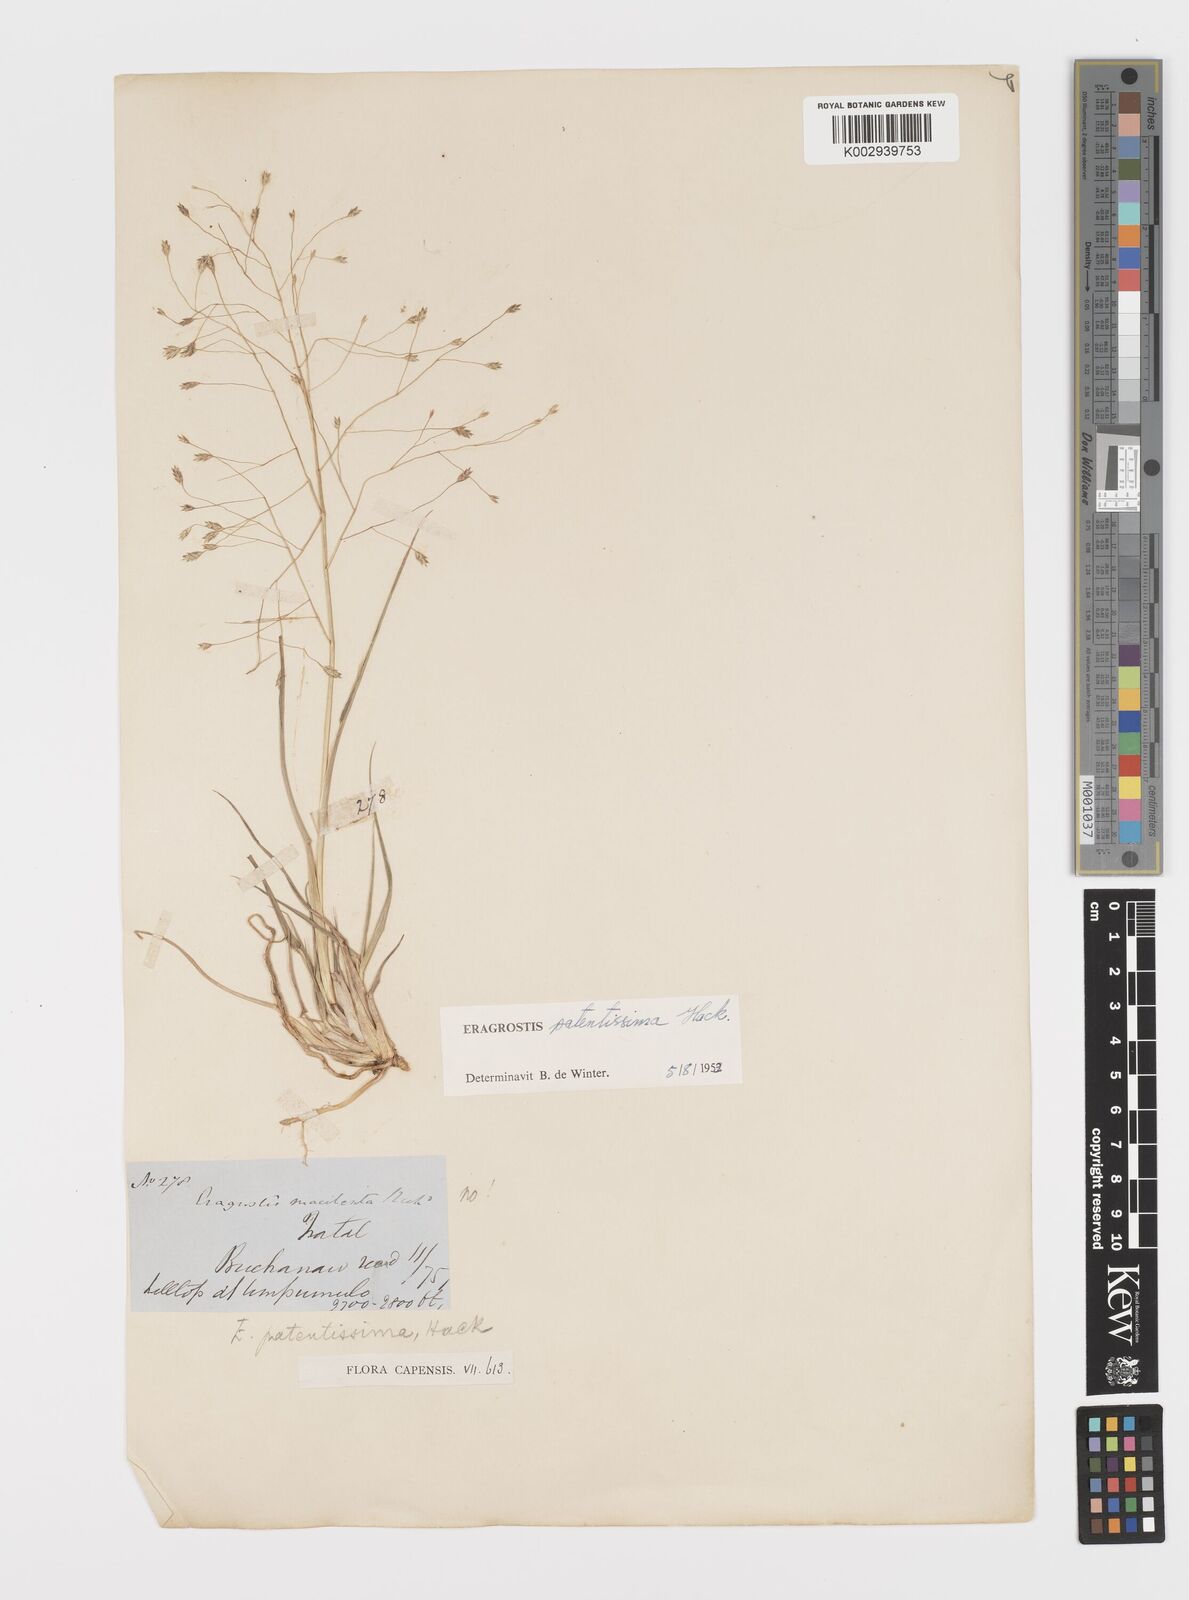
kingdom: Plantae
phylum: Tracheophyta
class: Liliopsida
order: Poales
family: Poaceae
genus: Eragrostis
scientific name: Eragrostis patentissima
